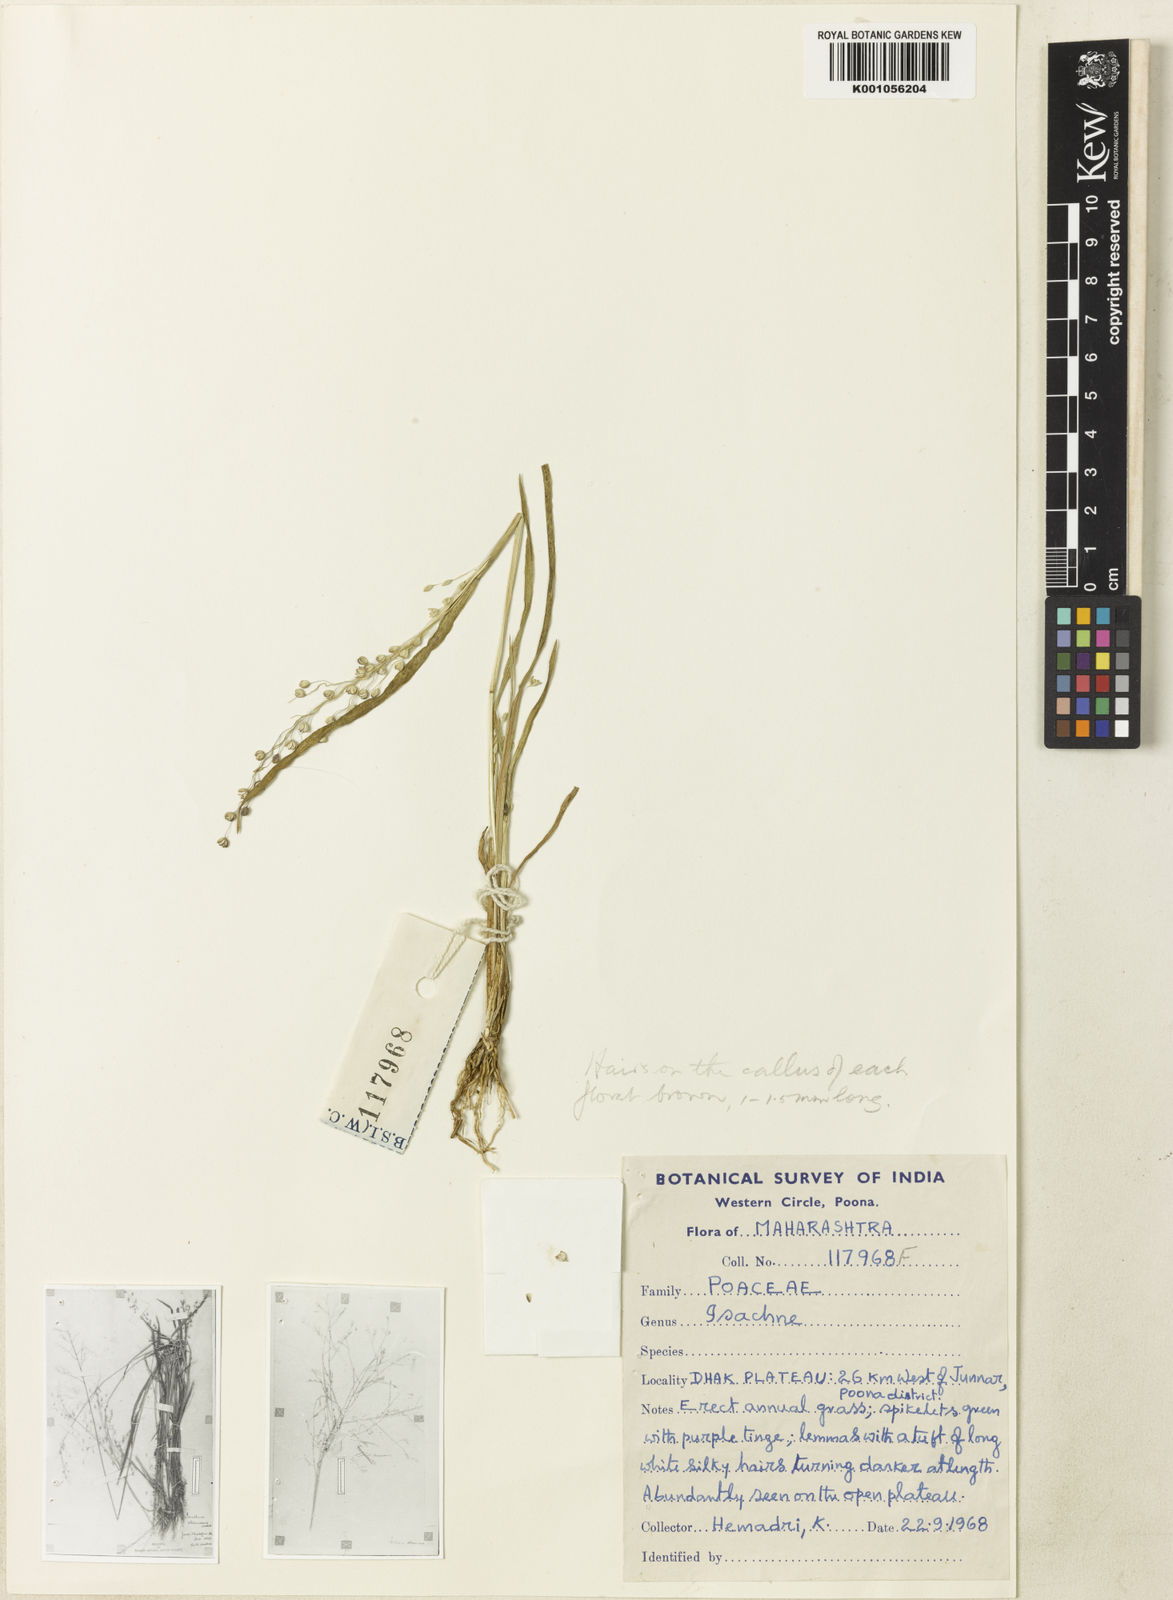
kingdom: Plantae
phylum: Tracheophyta
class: Liliopsida
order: Poales
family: Poaceae
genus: Isachne
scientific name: Isachne borii
